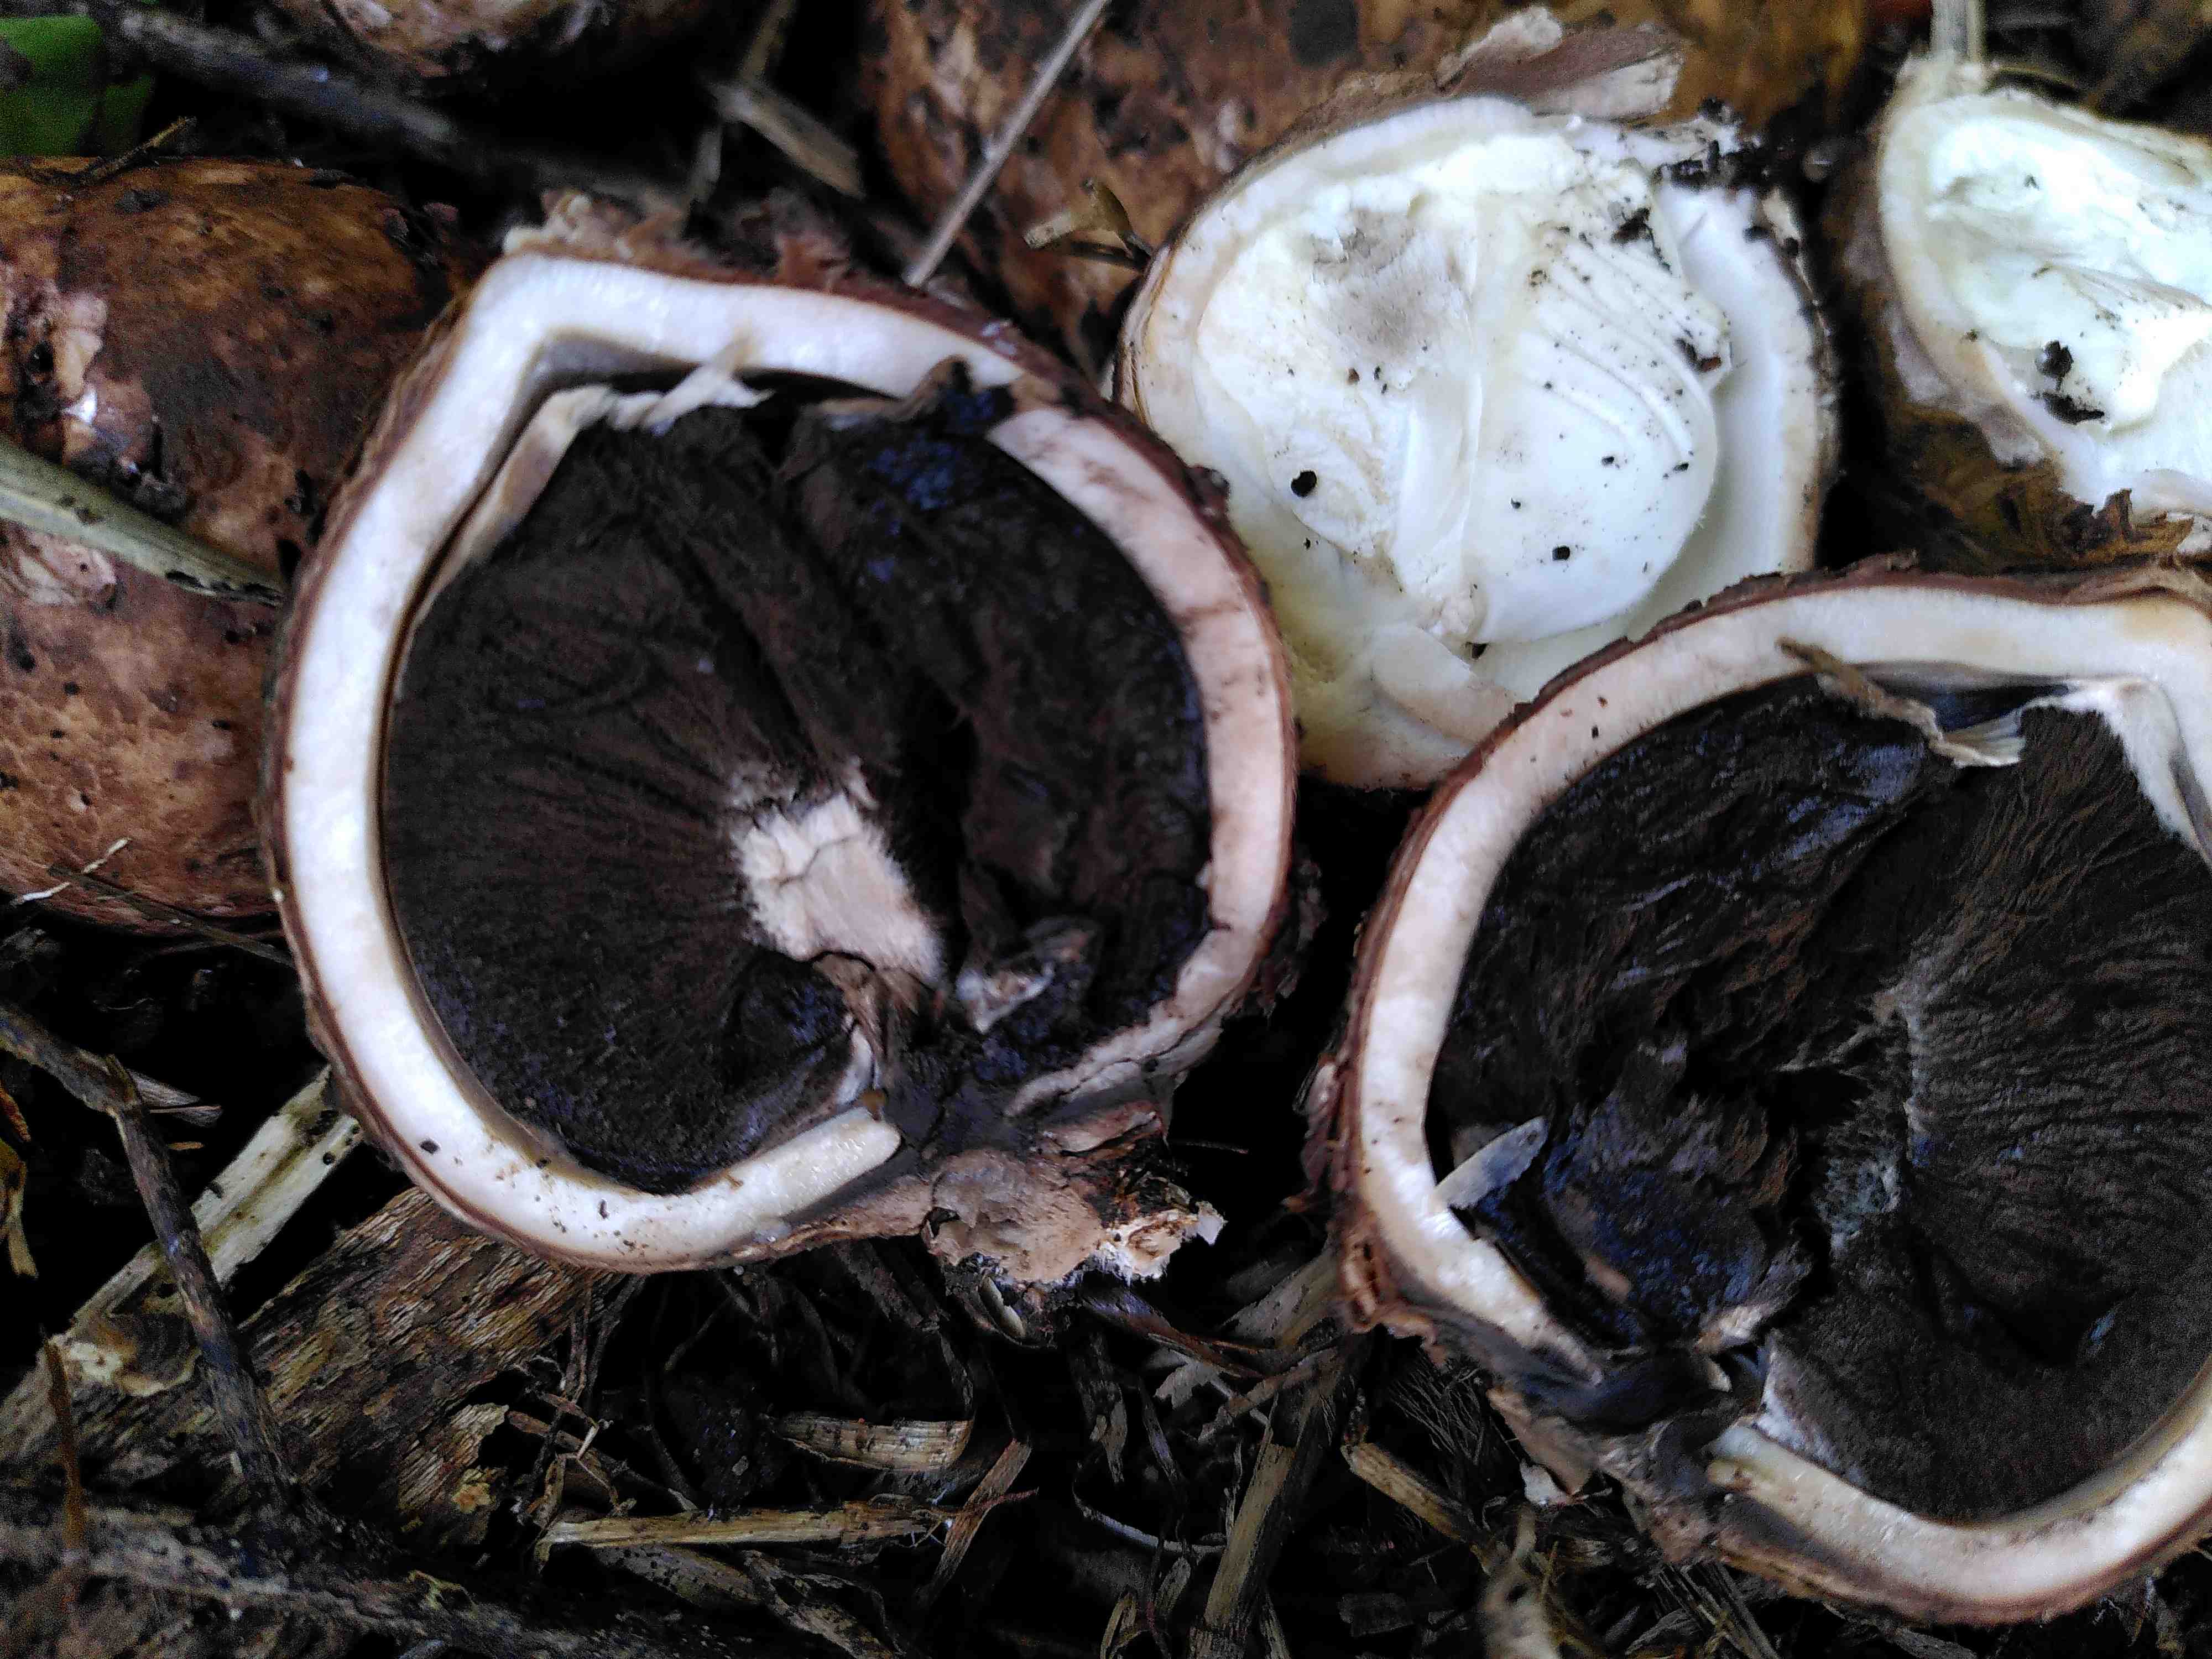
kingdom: Fungi
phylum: Basidiomycota
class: Agaricomycetes
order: Geastrales
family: Geastraceae
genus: Geastrum
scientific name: Geastrum michelianum
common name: kødet stjernebold
